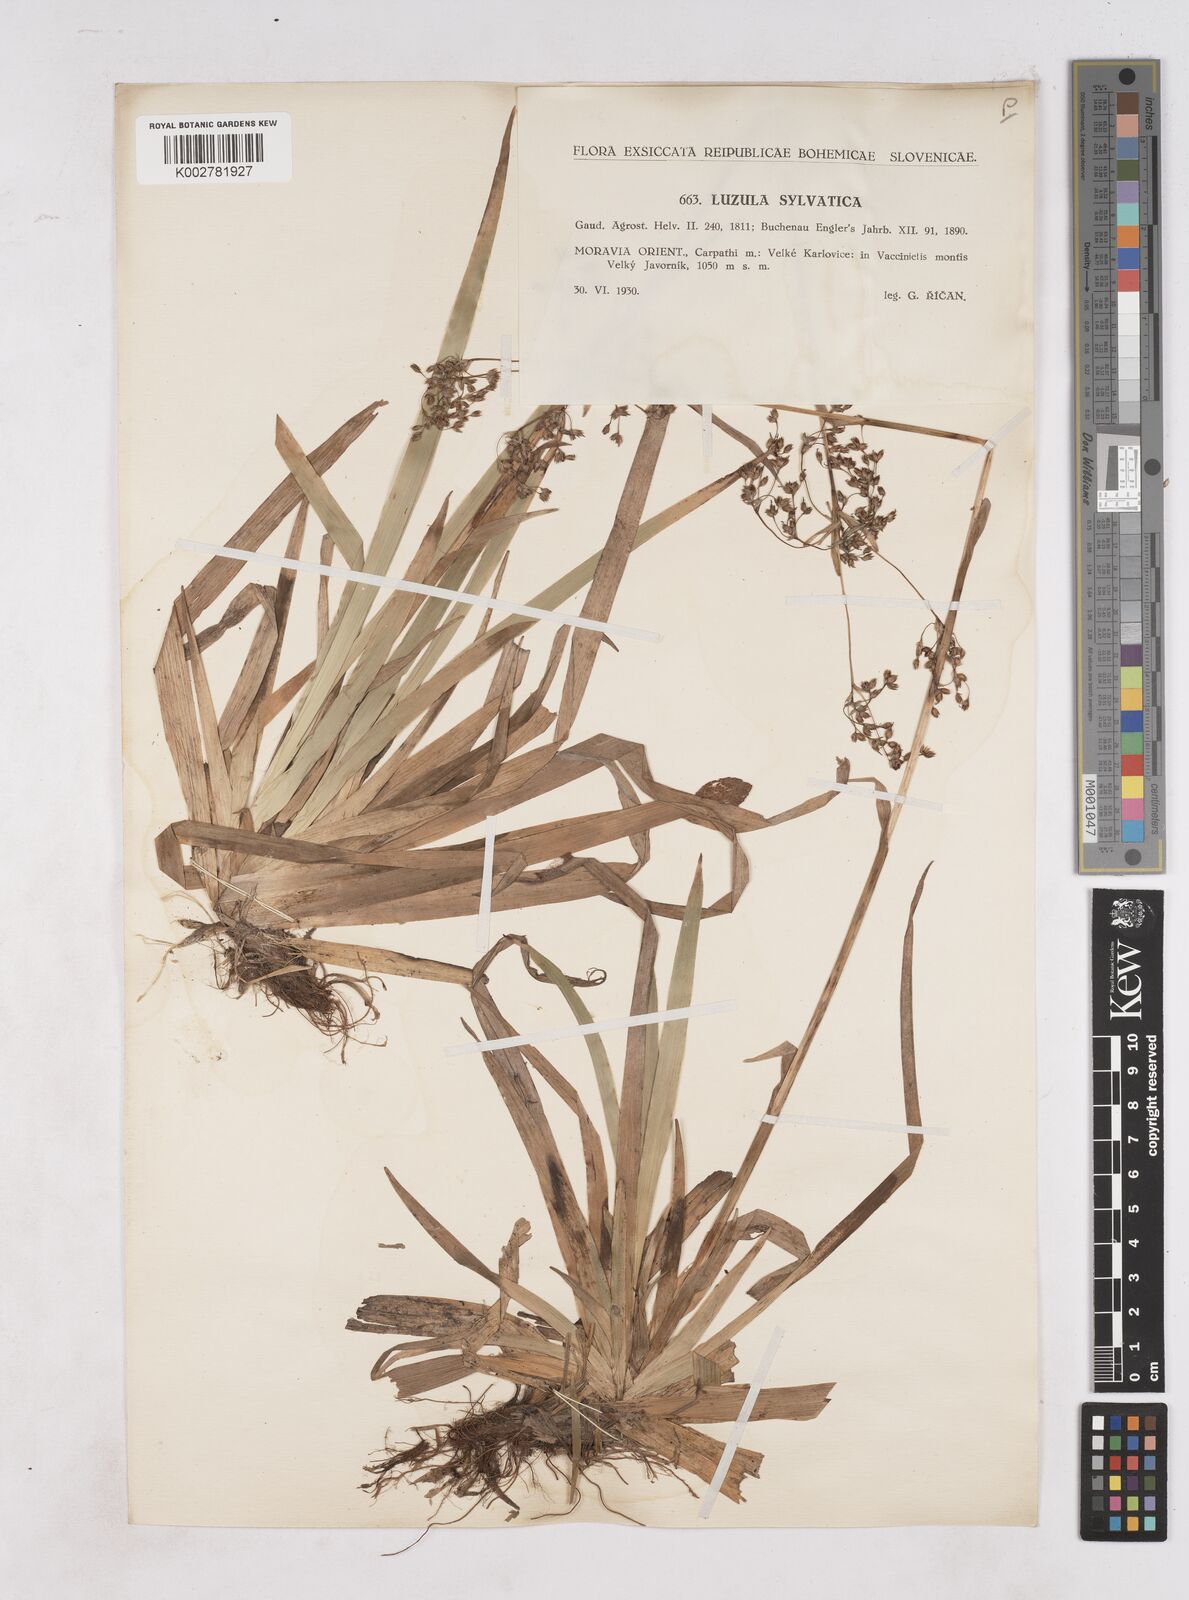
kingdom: Plantae
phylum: Tracheophyta
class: Liliopsida
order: Poales
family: Juncaceae
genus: Luzula
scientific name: Luzula sylvatica
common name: Great wood-rush
